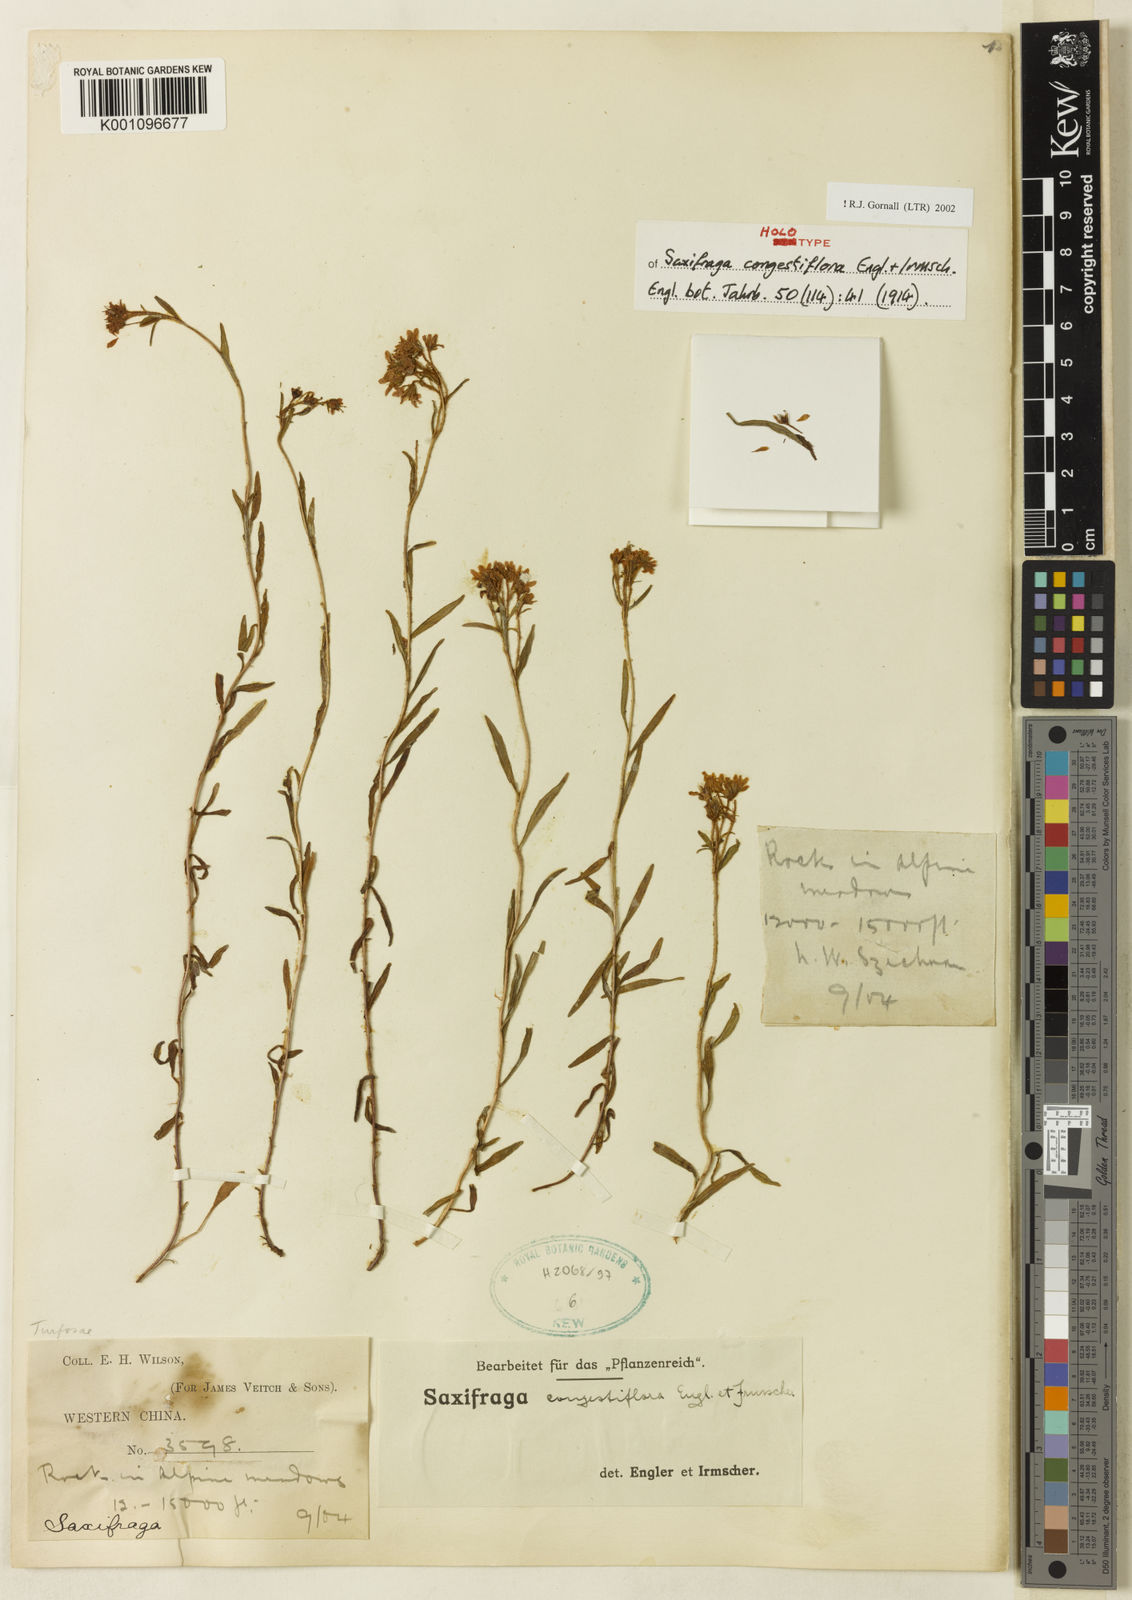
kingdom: Plantae
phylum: Tracheophyta
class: Magnoliopsida
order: Saxifragales
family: Saxifragaceae
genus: Saxifraga
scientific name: Saxifraga congestiflora
